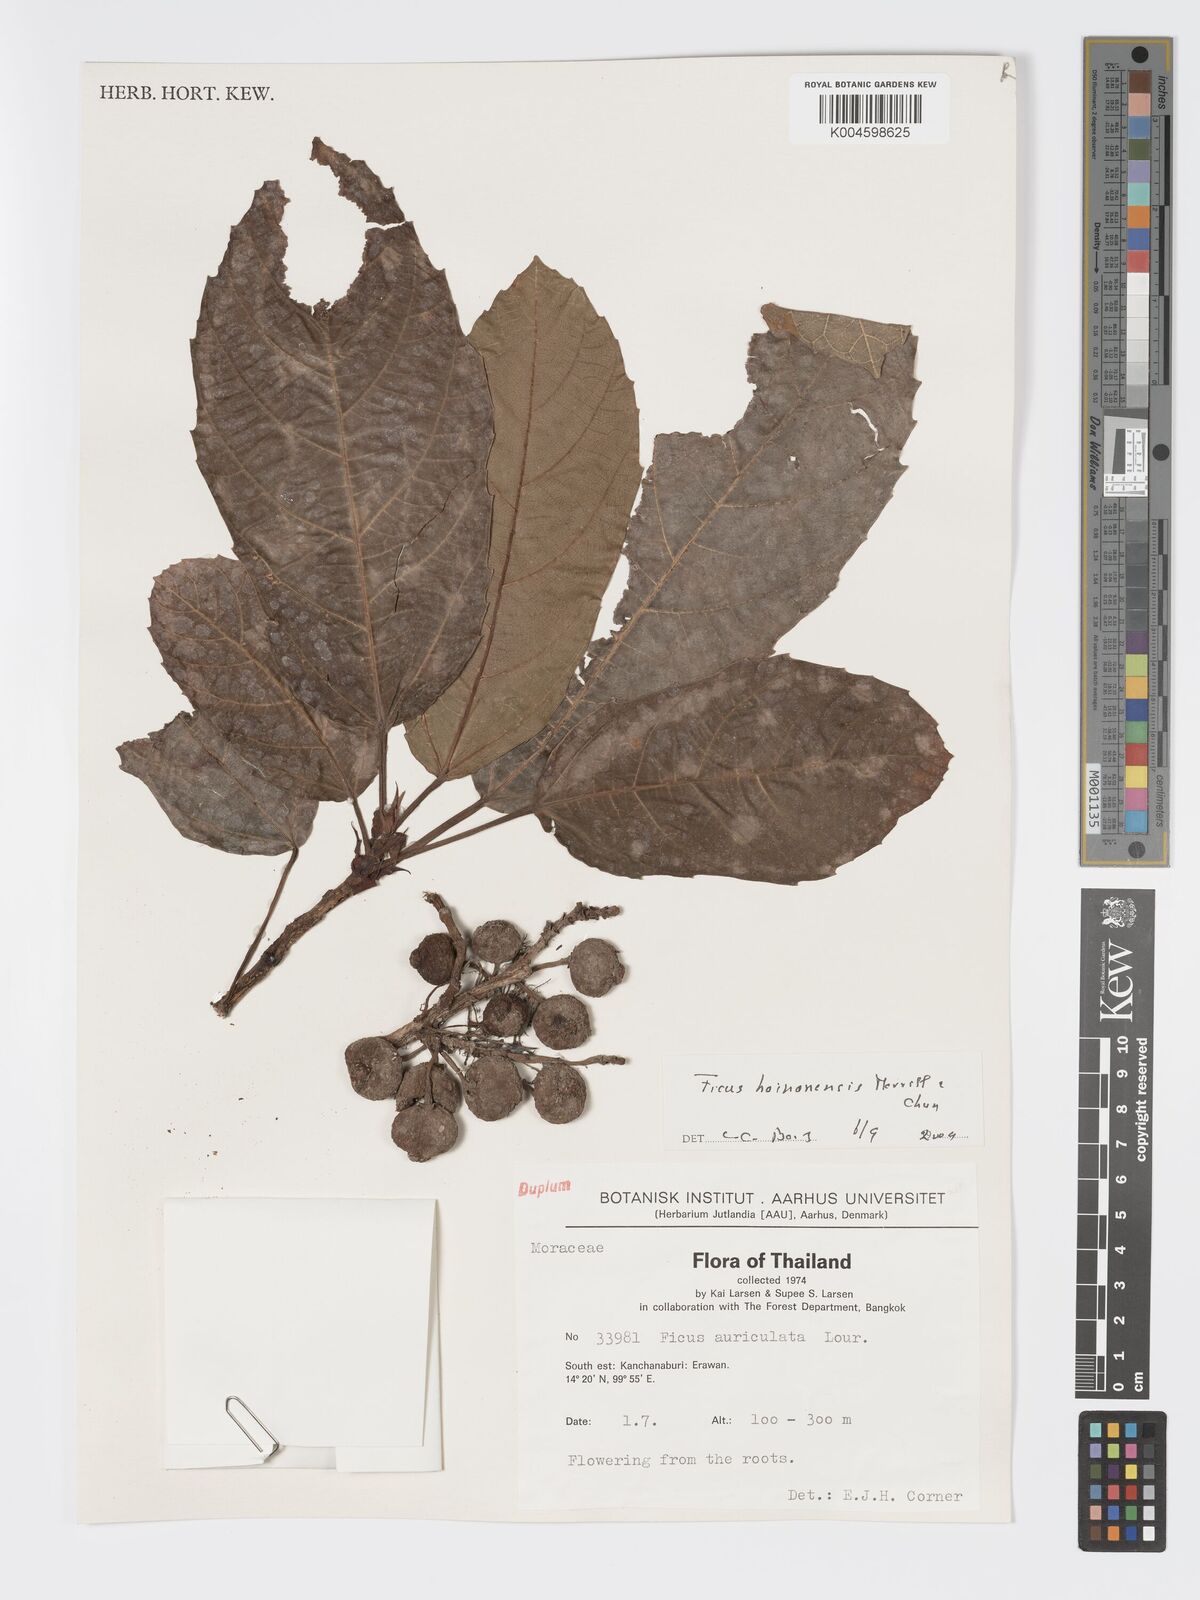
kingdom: Plantae
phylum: Tracheophyta
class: Magnoliopsida
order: Rosales
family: Moraceae
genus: Ficus
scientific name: Ficus auriculata
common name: Roxburgh fig
